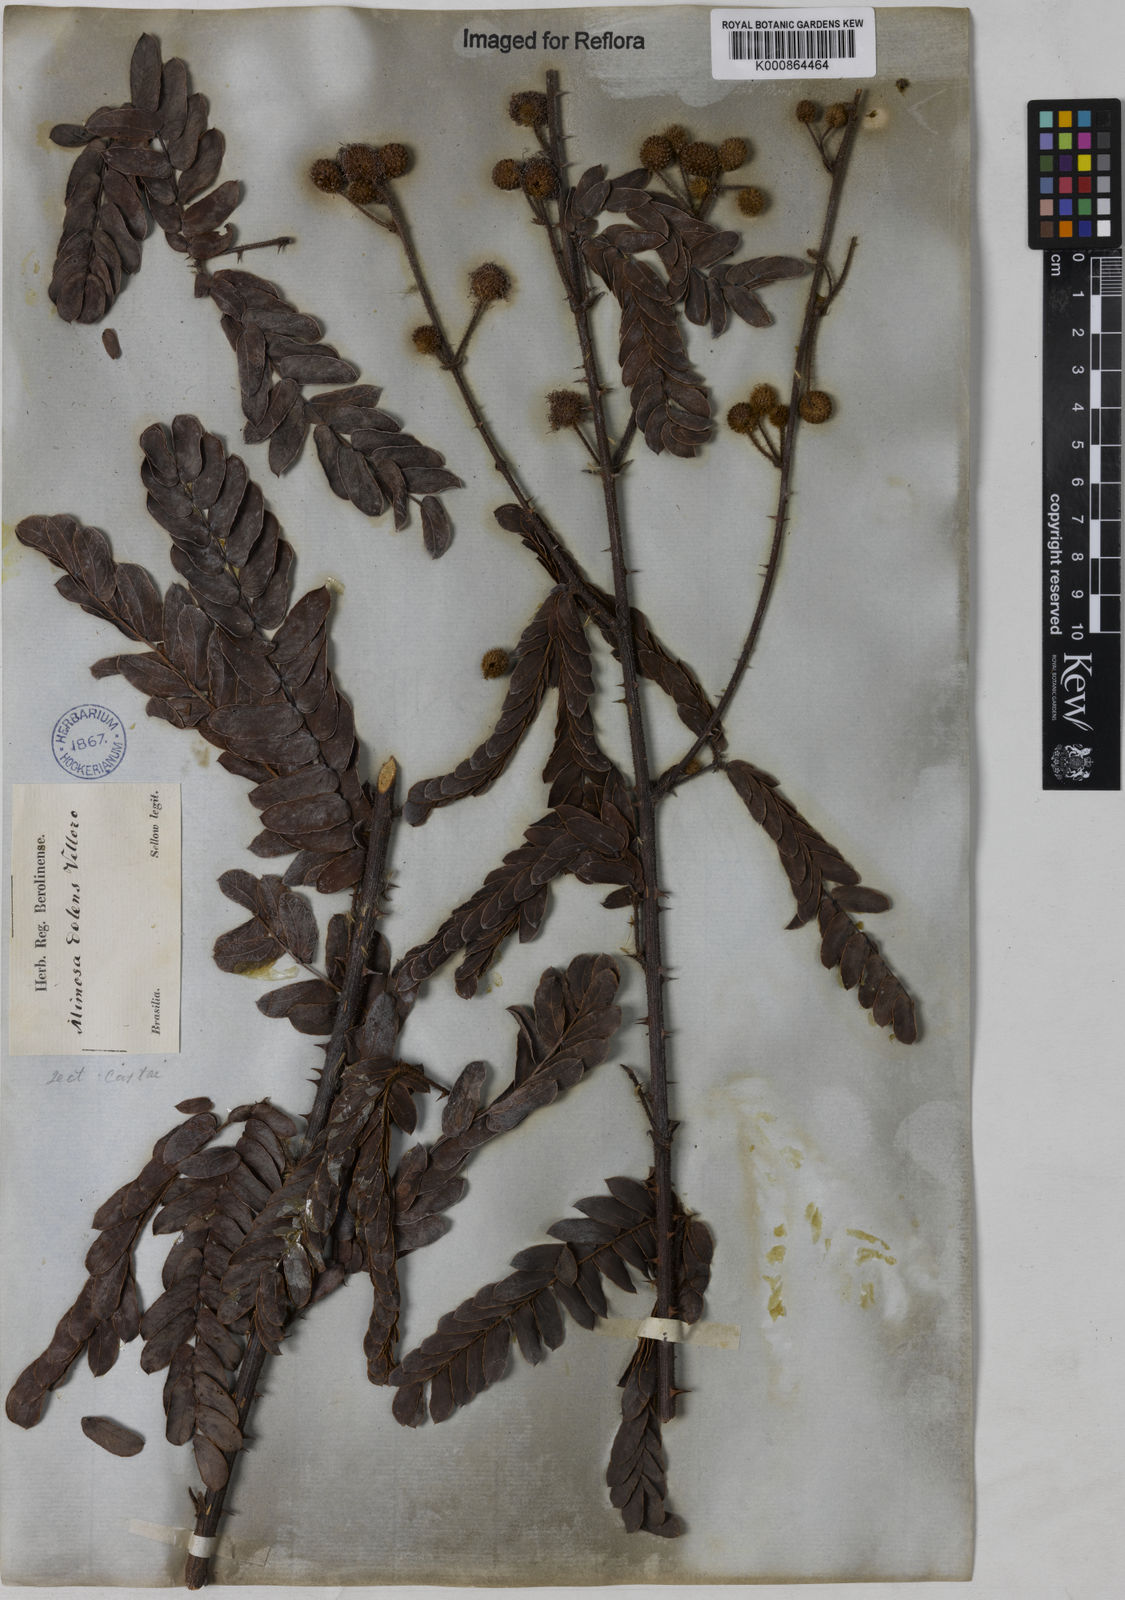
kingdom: Plantae
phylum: Tracheophyta
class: Magnoliopsida
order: Fabales
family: Fabaceae
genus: Mimosa
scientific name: Mimosa dolens
